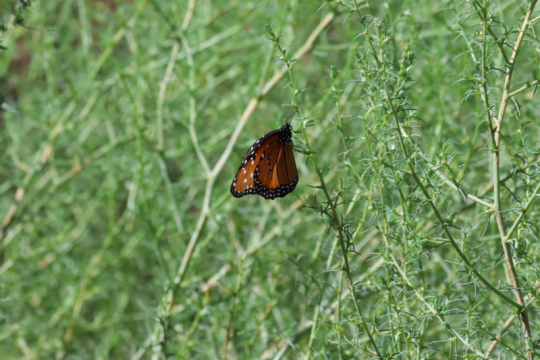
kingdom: Animalia
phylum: Arthropoda
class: Insecta
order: Lepidoptera
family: Nymphalidae
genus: Danaus
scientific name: Danaus gilippus
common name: Queen
